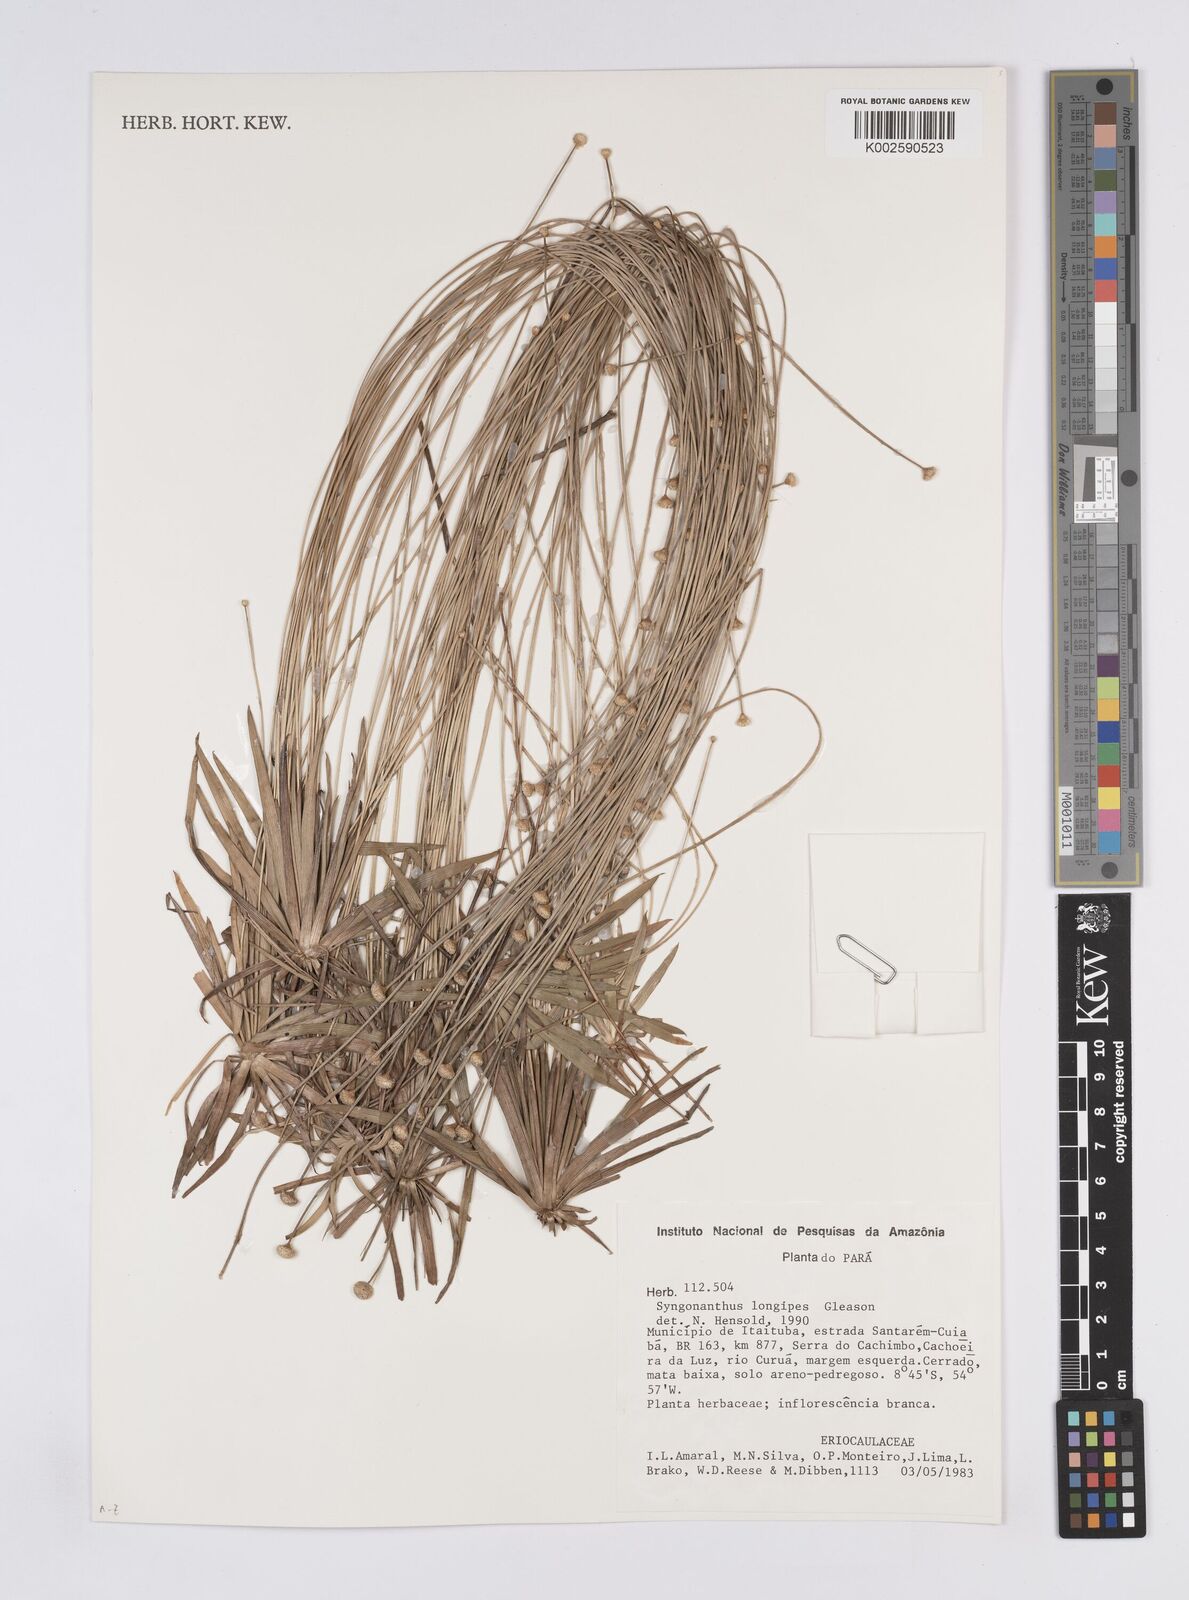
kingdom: Plantae
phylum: Tracheophyta
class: Liliopsida
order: Poales
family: Eriocaulaceae
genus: Syngonanthus
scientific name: Syngonanthus longipes
